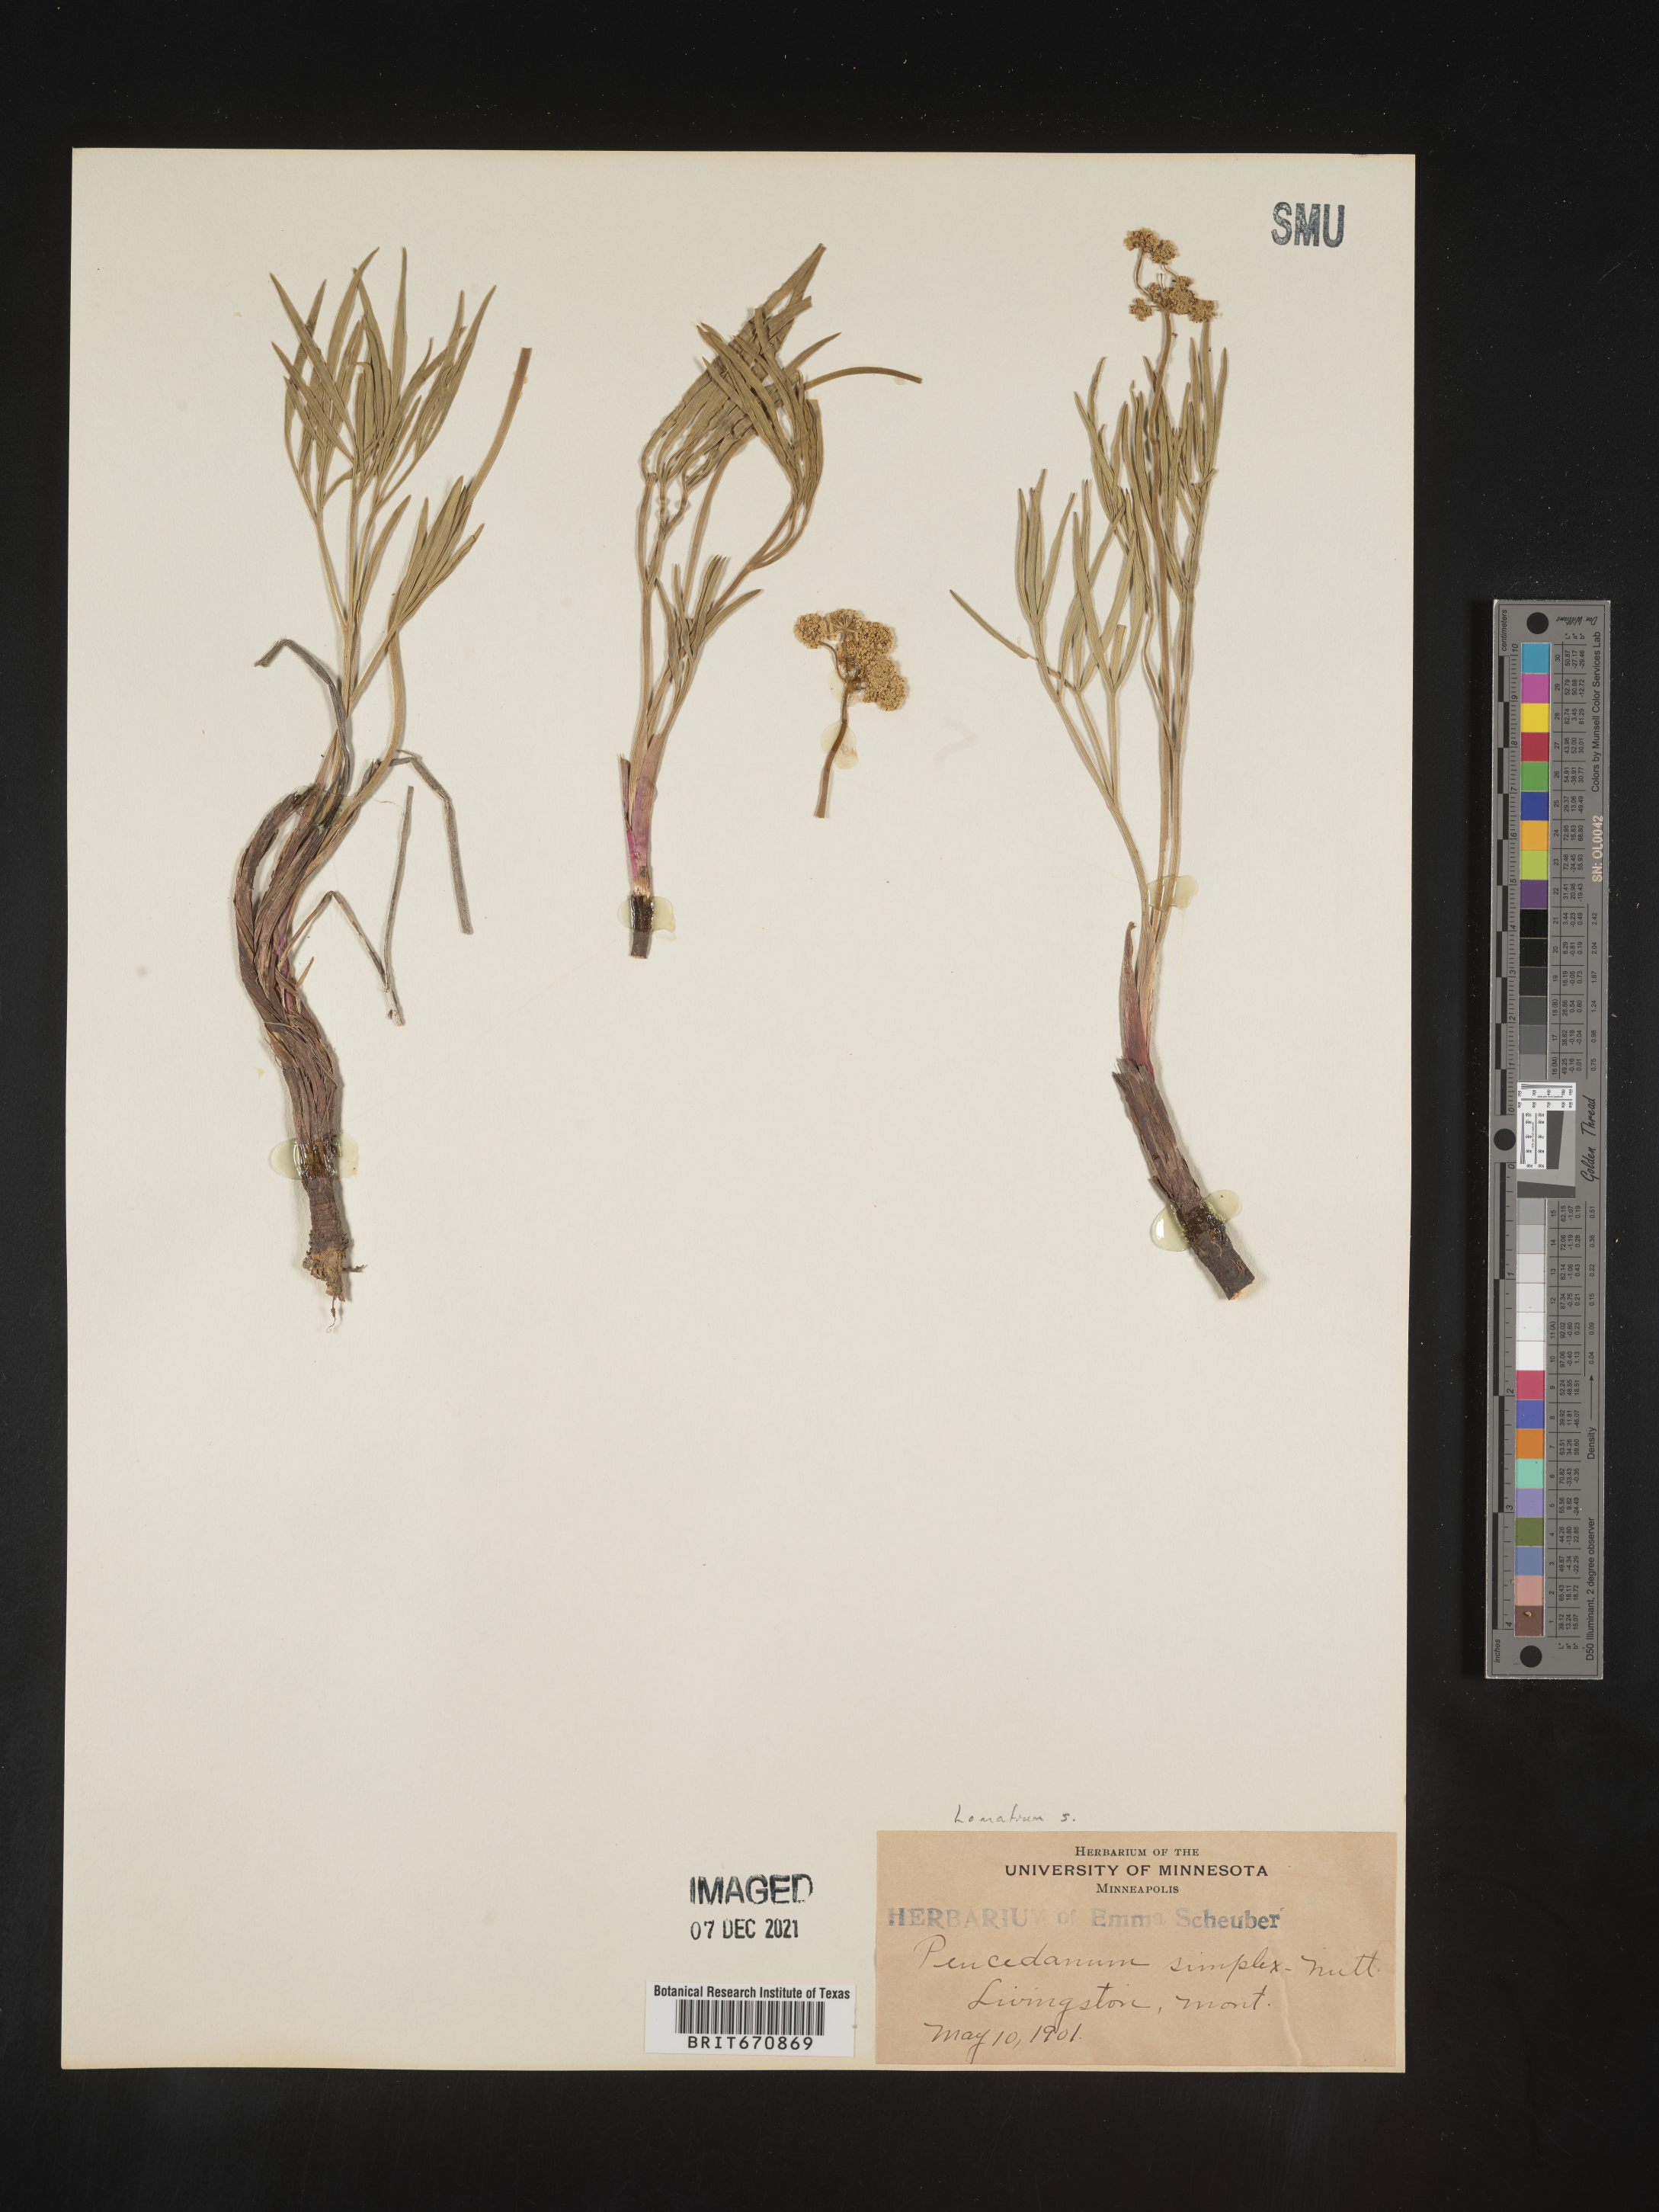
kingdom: Plantae
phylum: Tracheophyta
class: Magnoliopsida
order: Apiales
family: Apiaceae
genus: Lomatium
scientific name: Lomatium simplex
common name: Great basin biscuitroot
